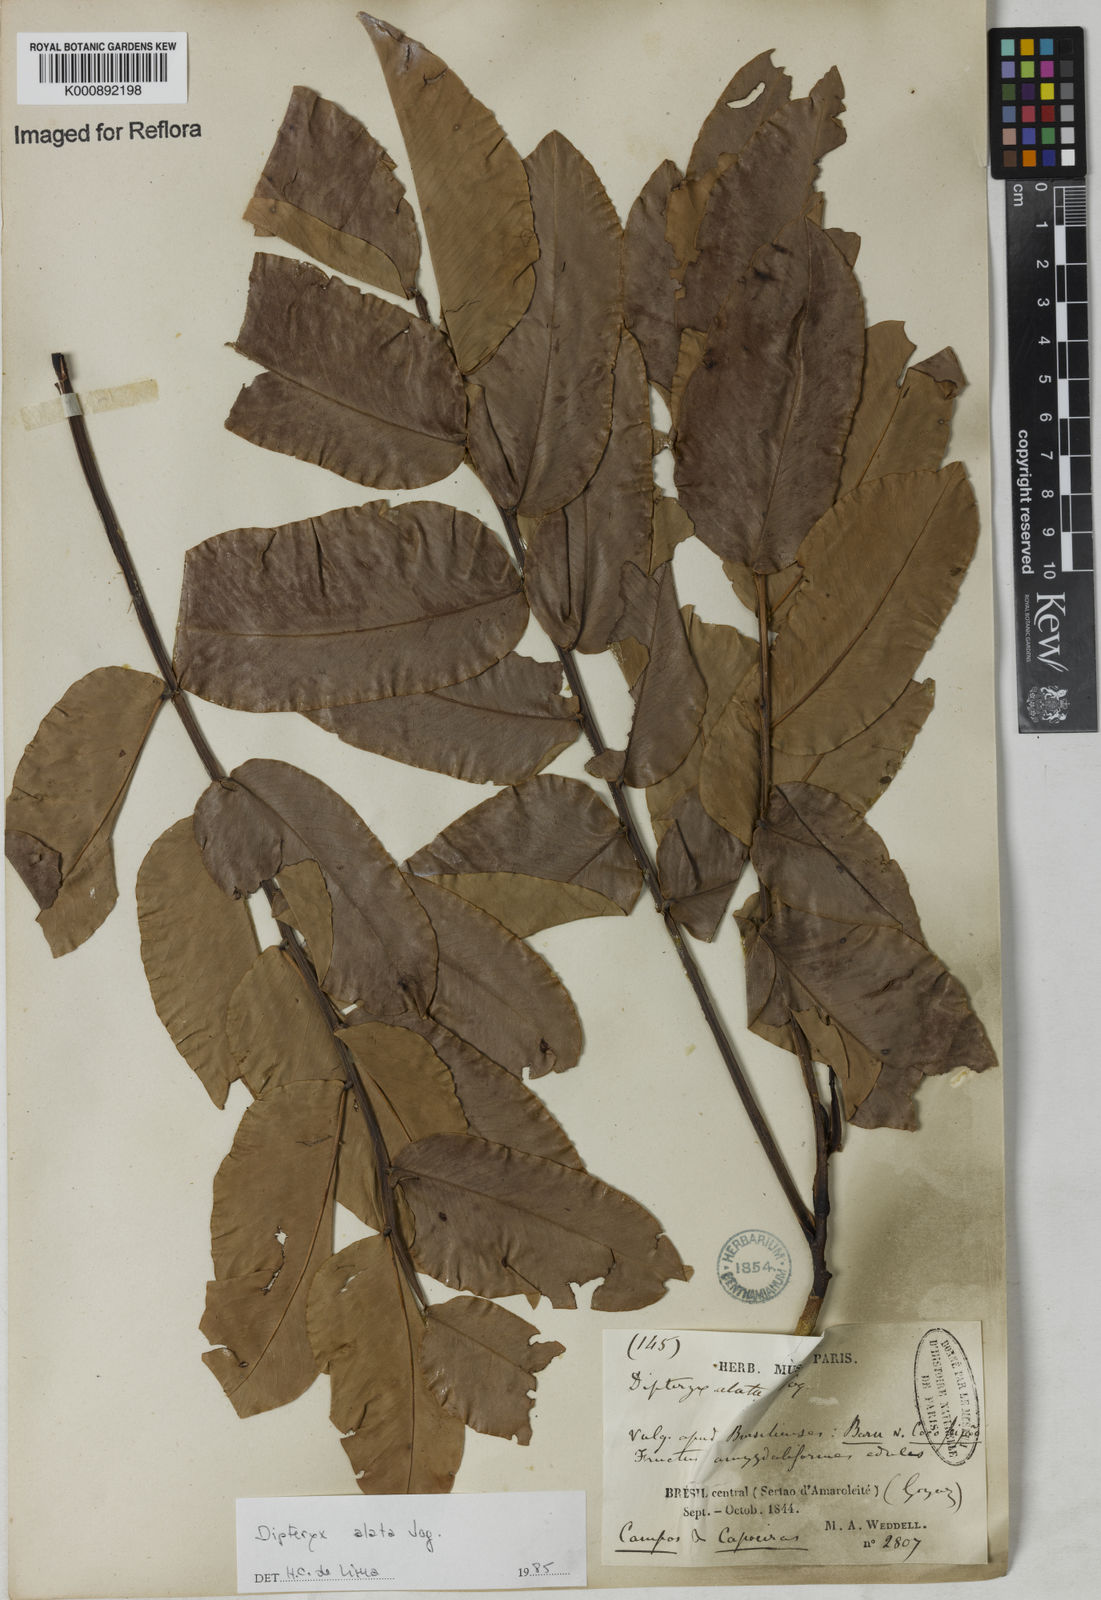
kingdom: Plantae
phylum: Tracheophyta
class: Magnoliopsida
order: Fabales
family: Fabaceae
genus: Dipteryx
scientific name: Dipteryx alata
